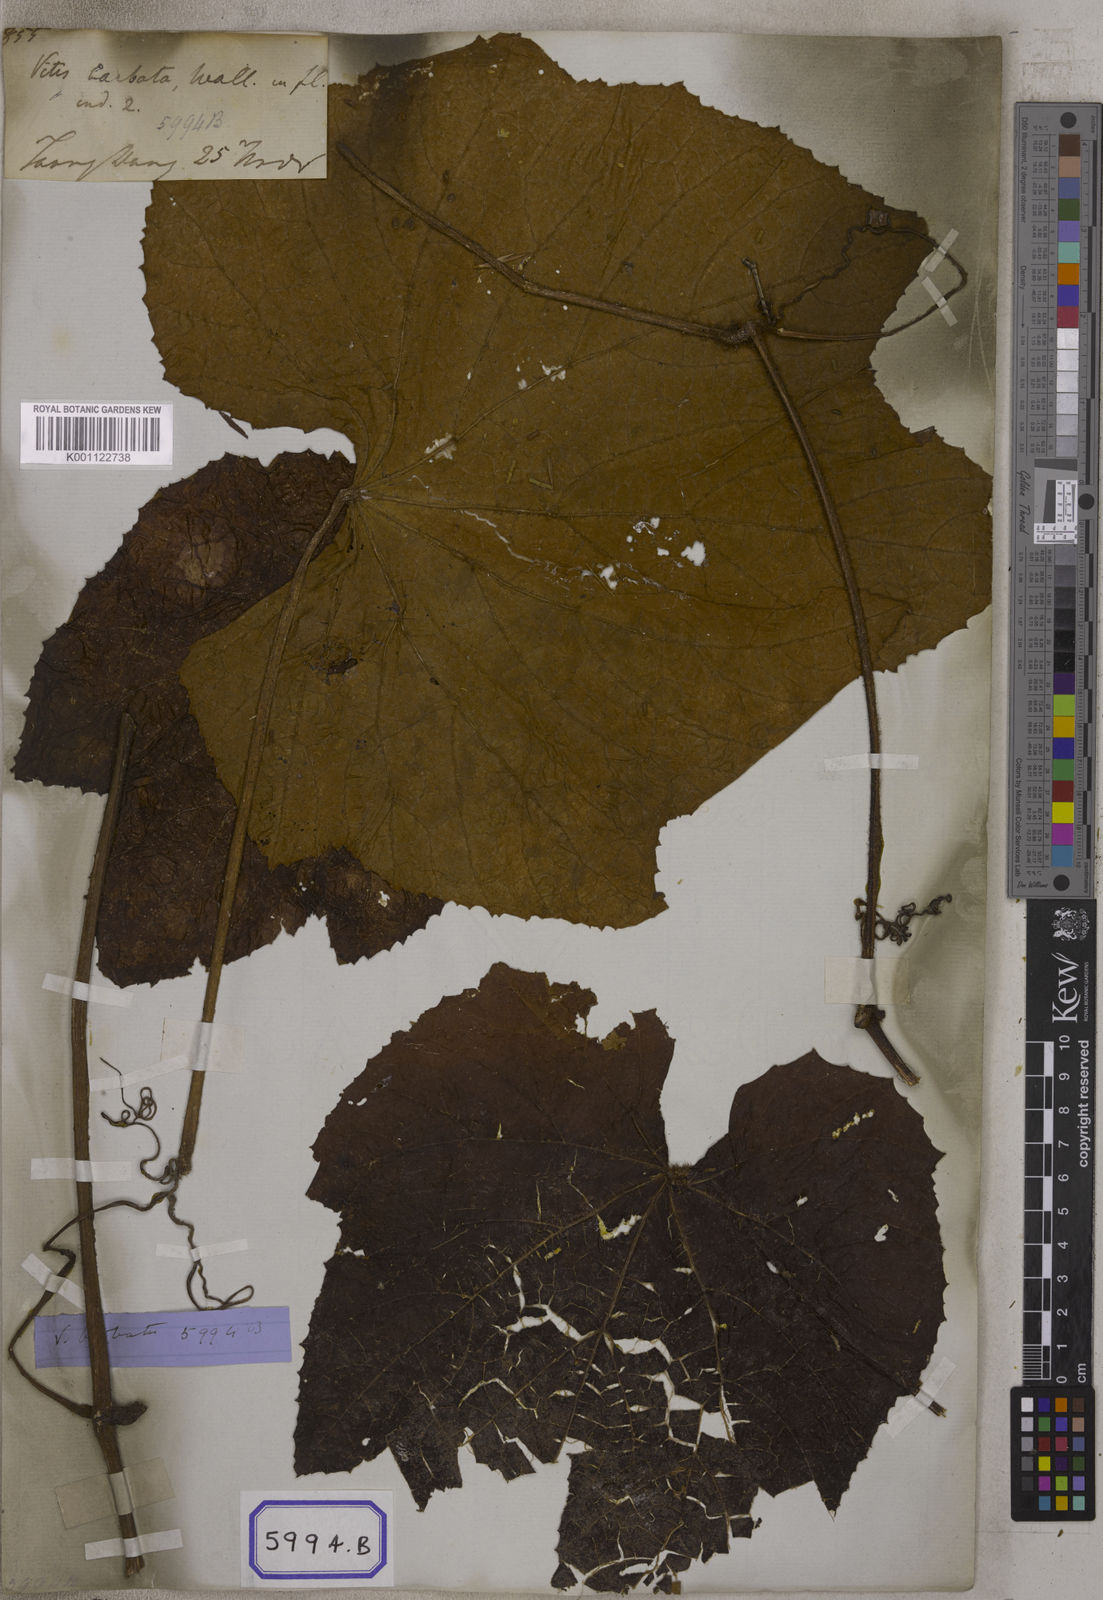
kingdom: Plantae
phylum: Tracheophyta
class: Magnoliopsida
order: Vitales
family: Vitaceae
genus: Ampelocissus
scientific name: Ampelocissus rugosa
